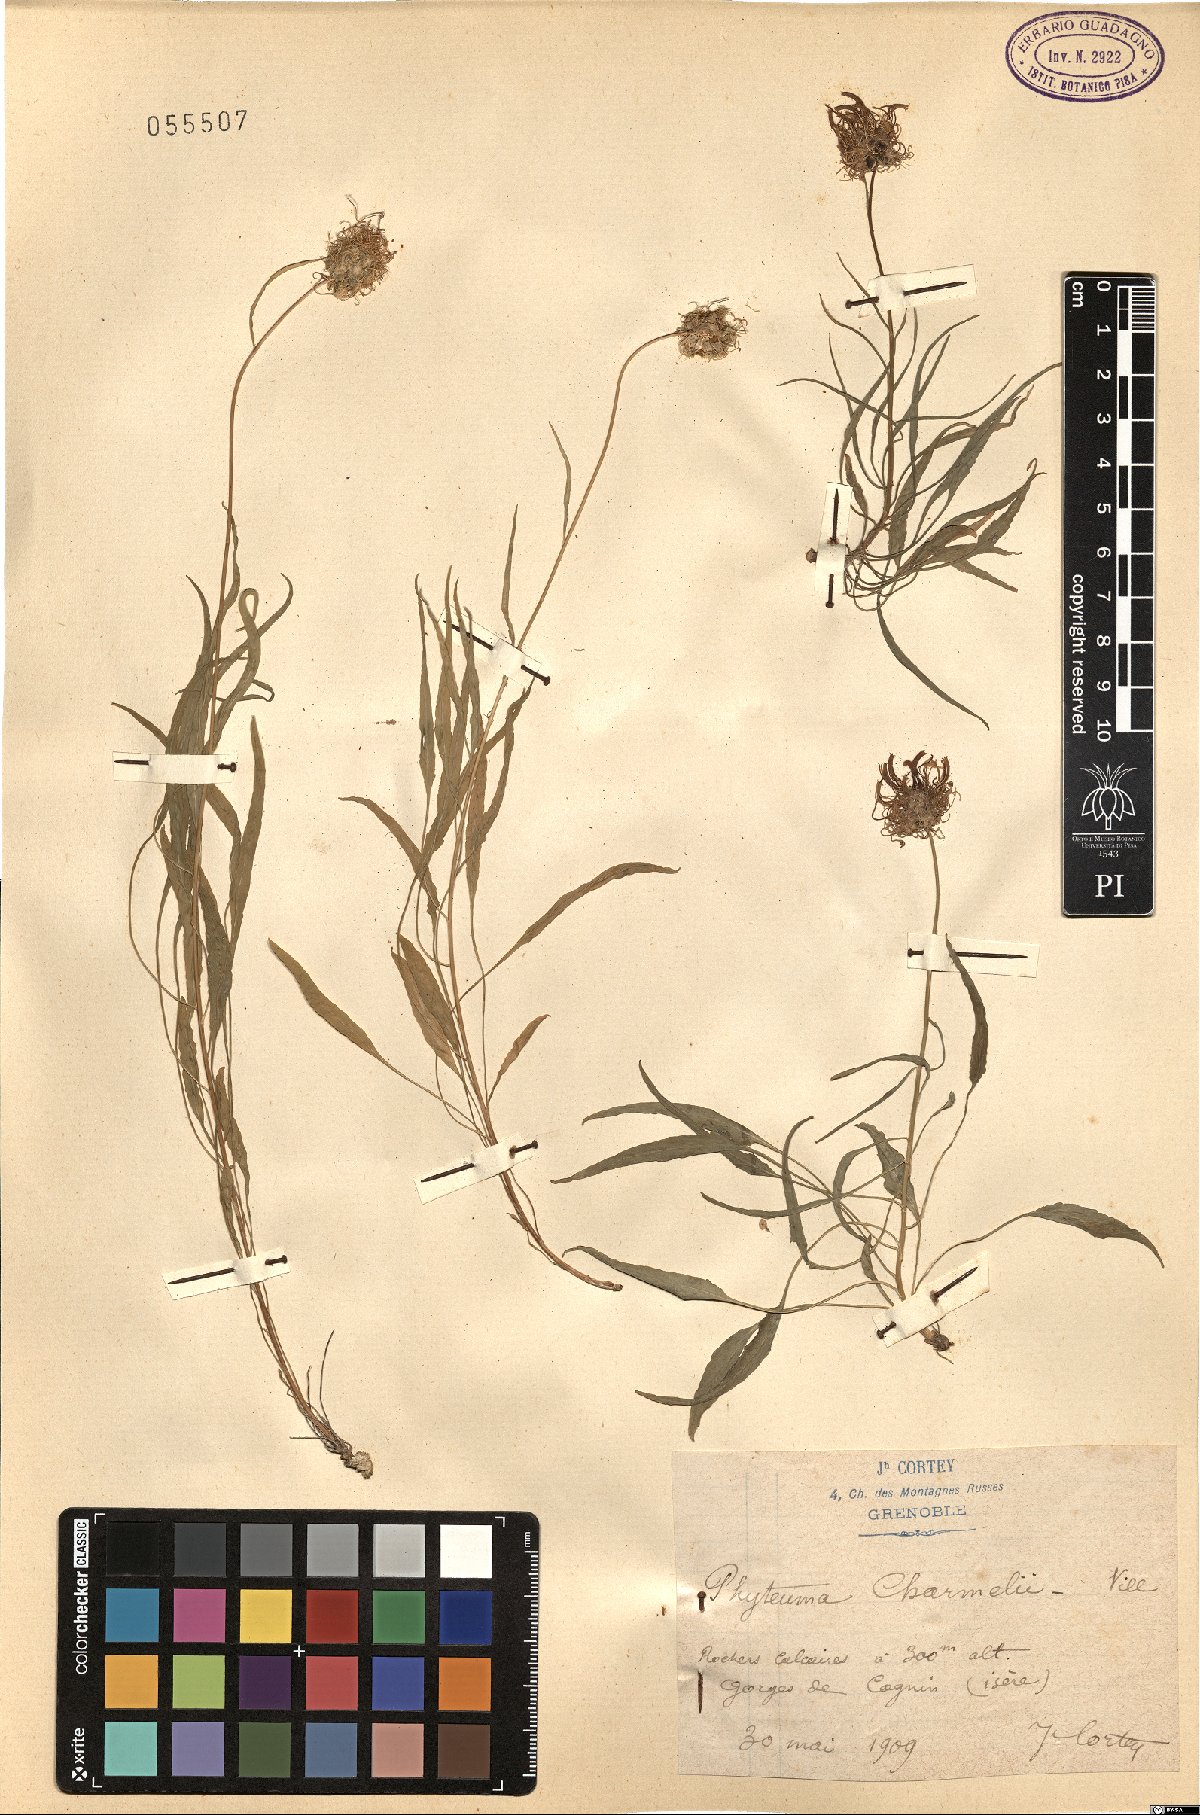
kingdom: Plantae
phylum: Tracheophyta
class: Magnoliopsida
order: Asterales
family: Campanulaceae
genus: Phyteuma
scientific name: Phyteuma charmelii
